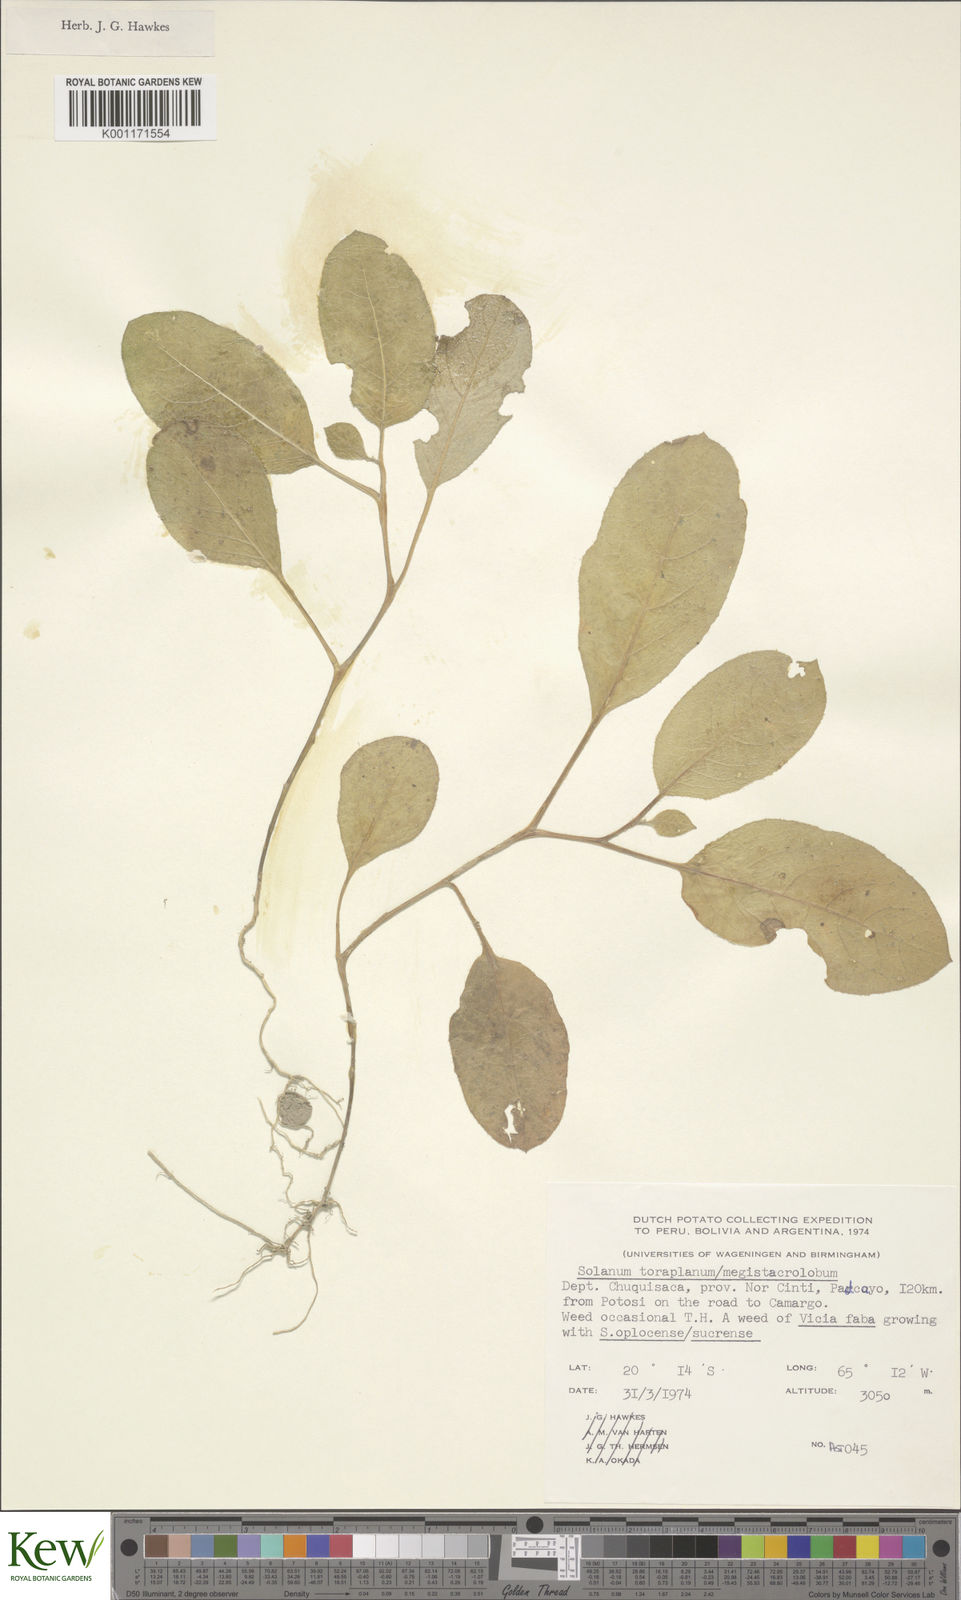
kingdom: Plantae
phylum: Tracheophyta
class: Magnoliopsida
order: Solanales
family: Solanaceae
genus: Solanum
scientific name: Solanum
